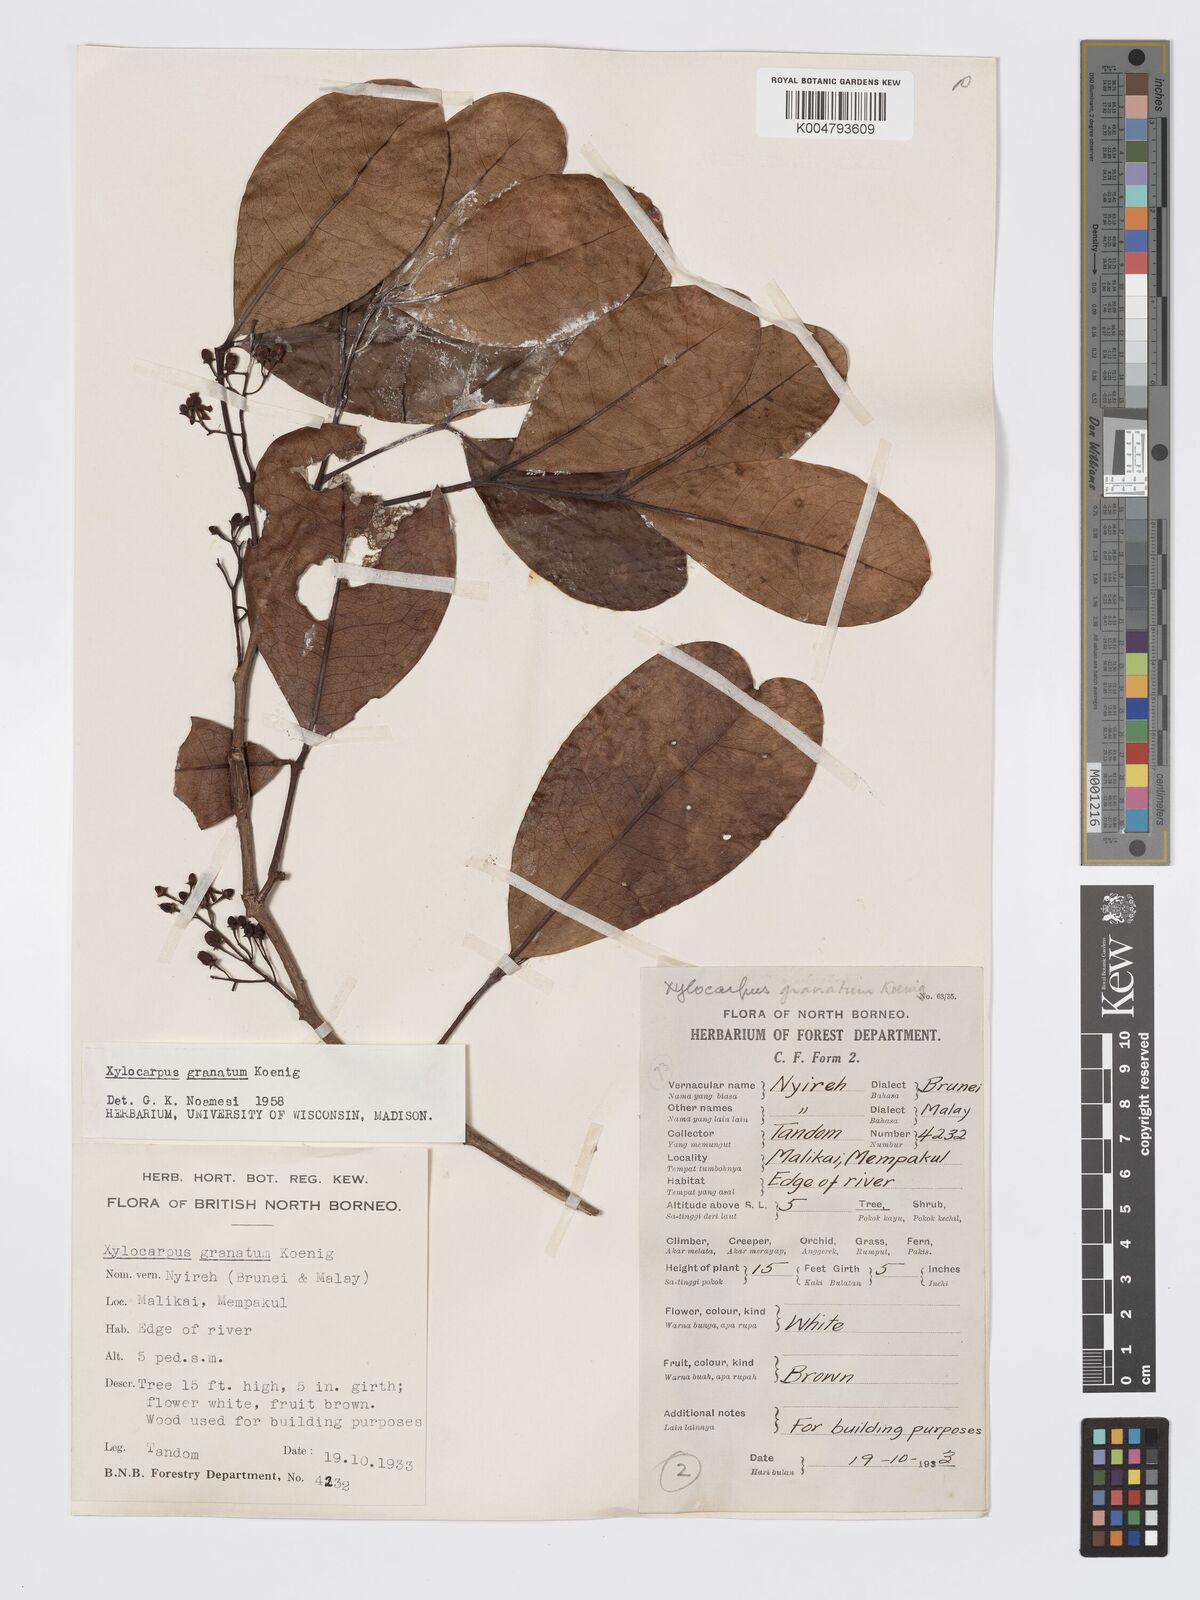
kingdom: Plantae
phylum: Tracheophyta
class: Magnoliopsida
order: Sapindales
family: Meliaceae
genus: Xylocarpus
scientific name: Xylocarpus granatum
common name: Apple mangrove
